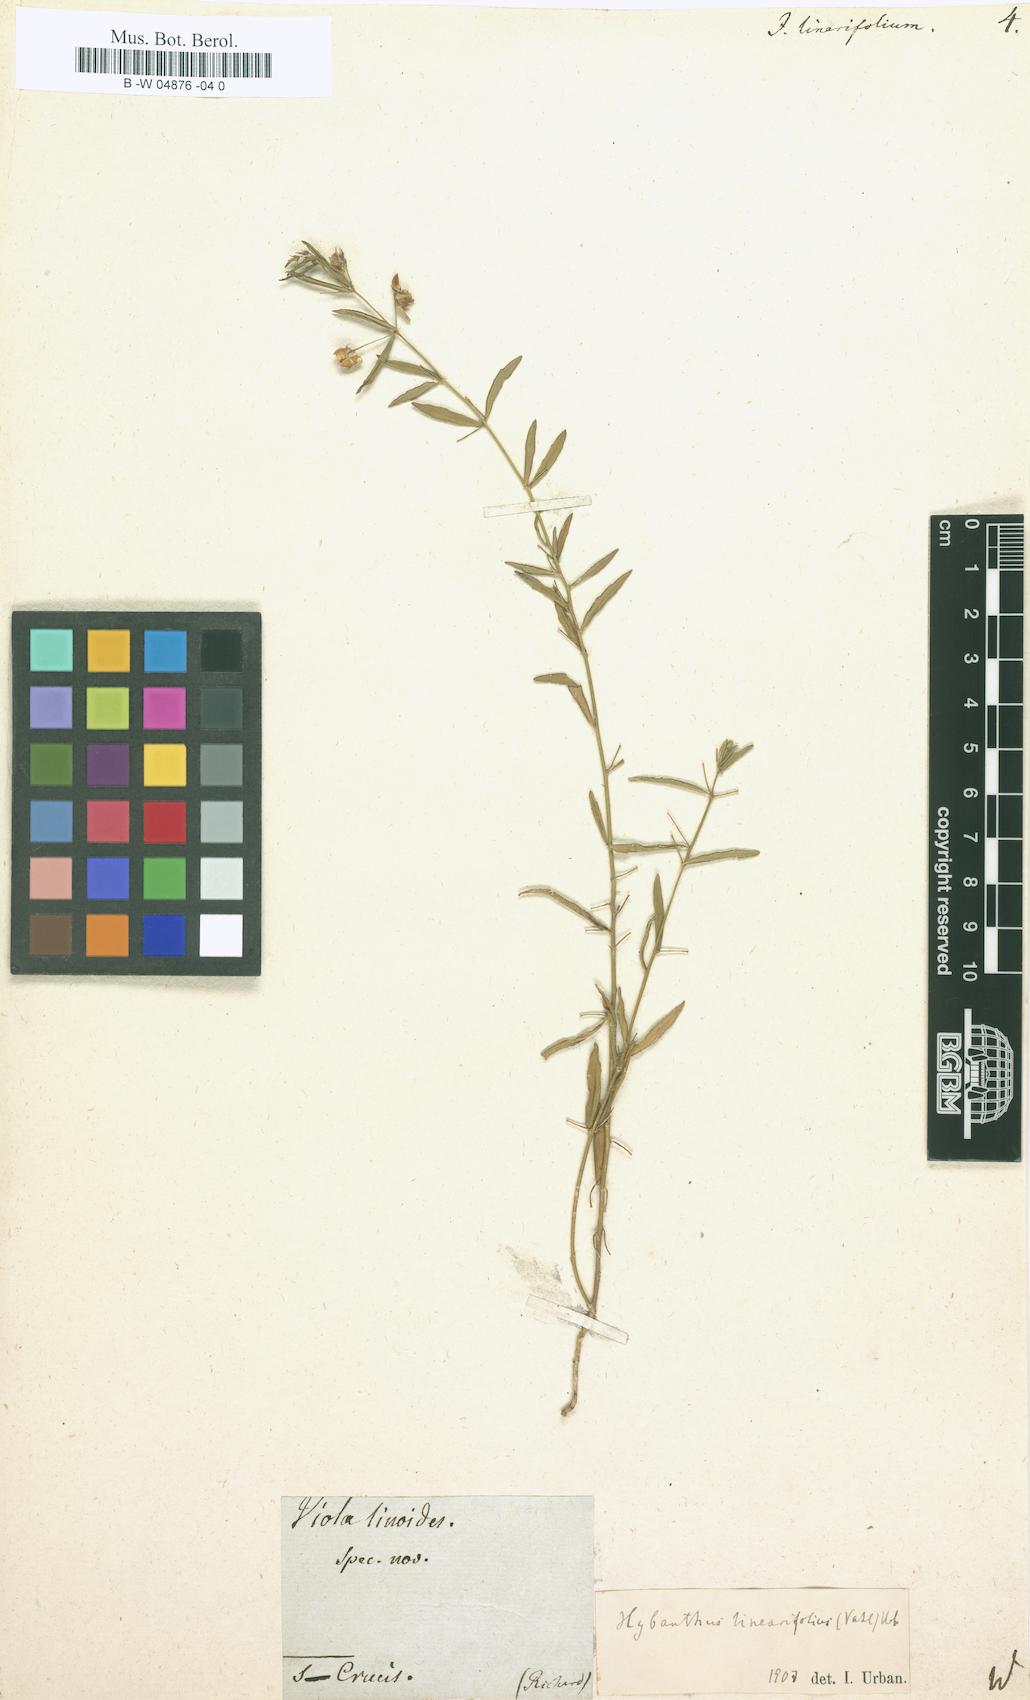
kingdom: Plantae
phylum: Tracheophyta
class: Magnoliopsida
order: Malpighiales
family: Violaceae
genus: Pombalia
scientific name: Pombalia linearifolia
